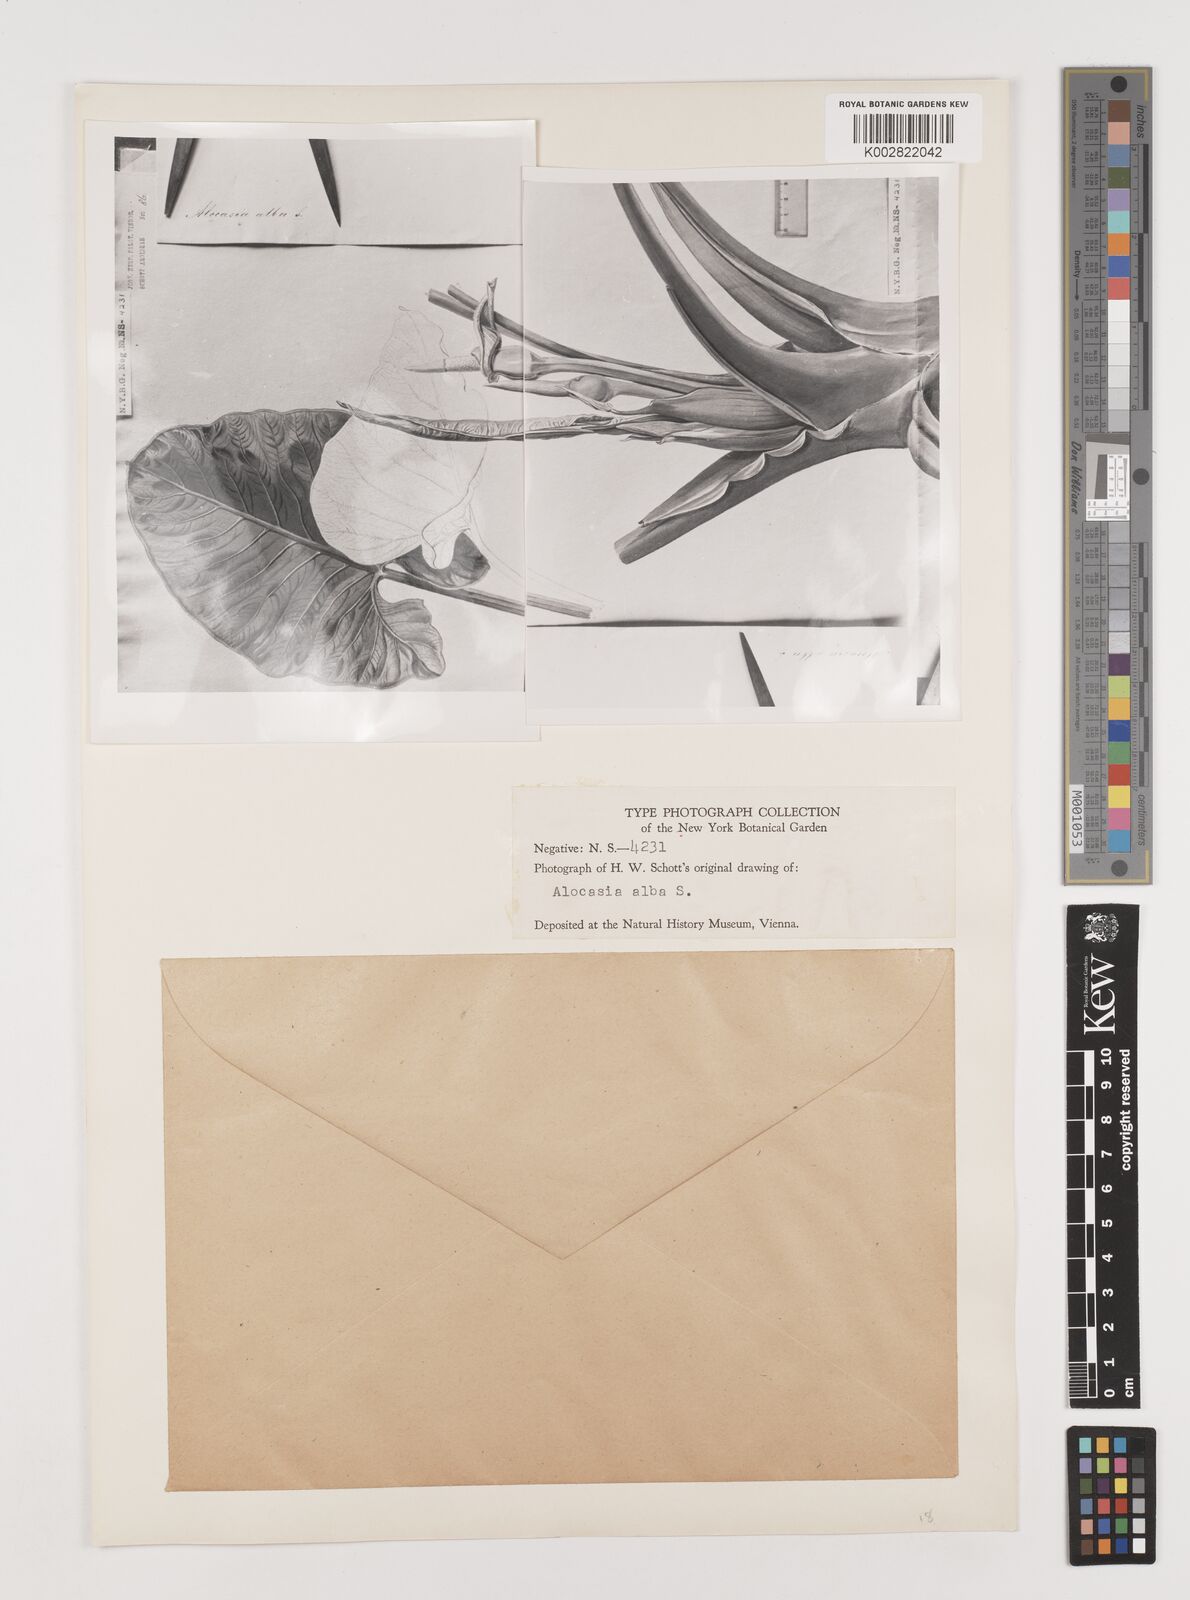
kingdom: Plantae
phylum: Tracheophyta
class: Liliopsida
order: Alismatales
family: Araceae
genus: Alocasia
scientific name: Alocasia alba
